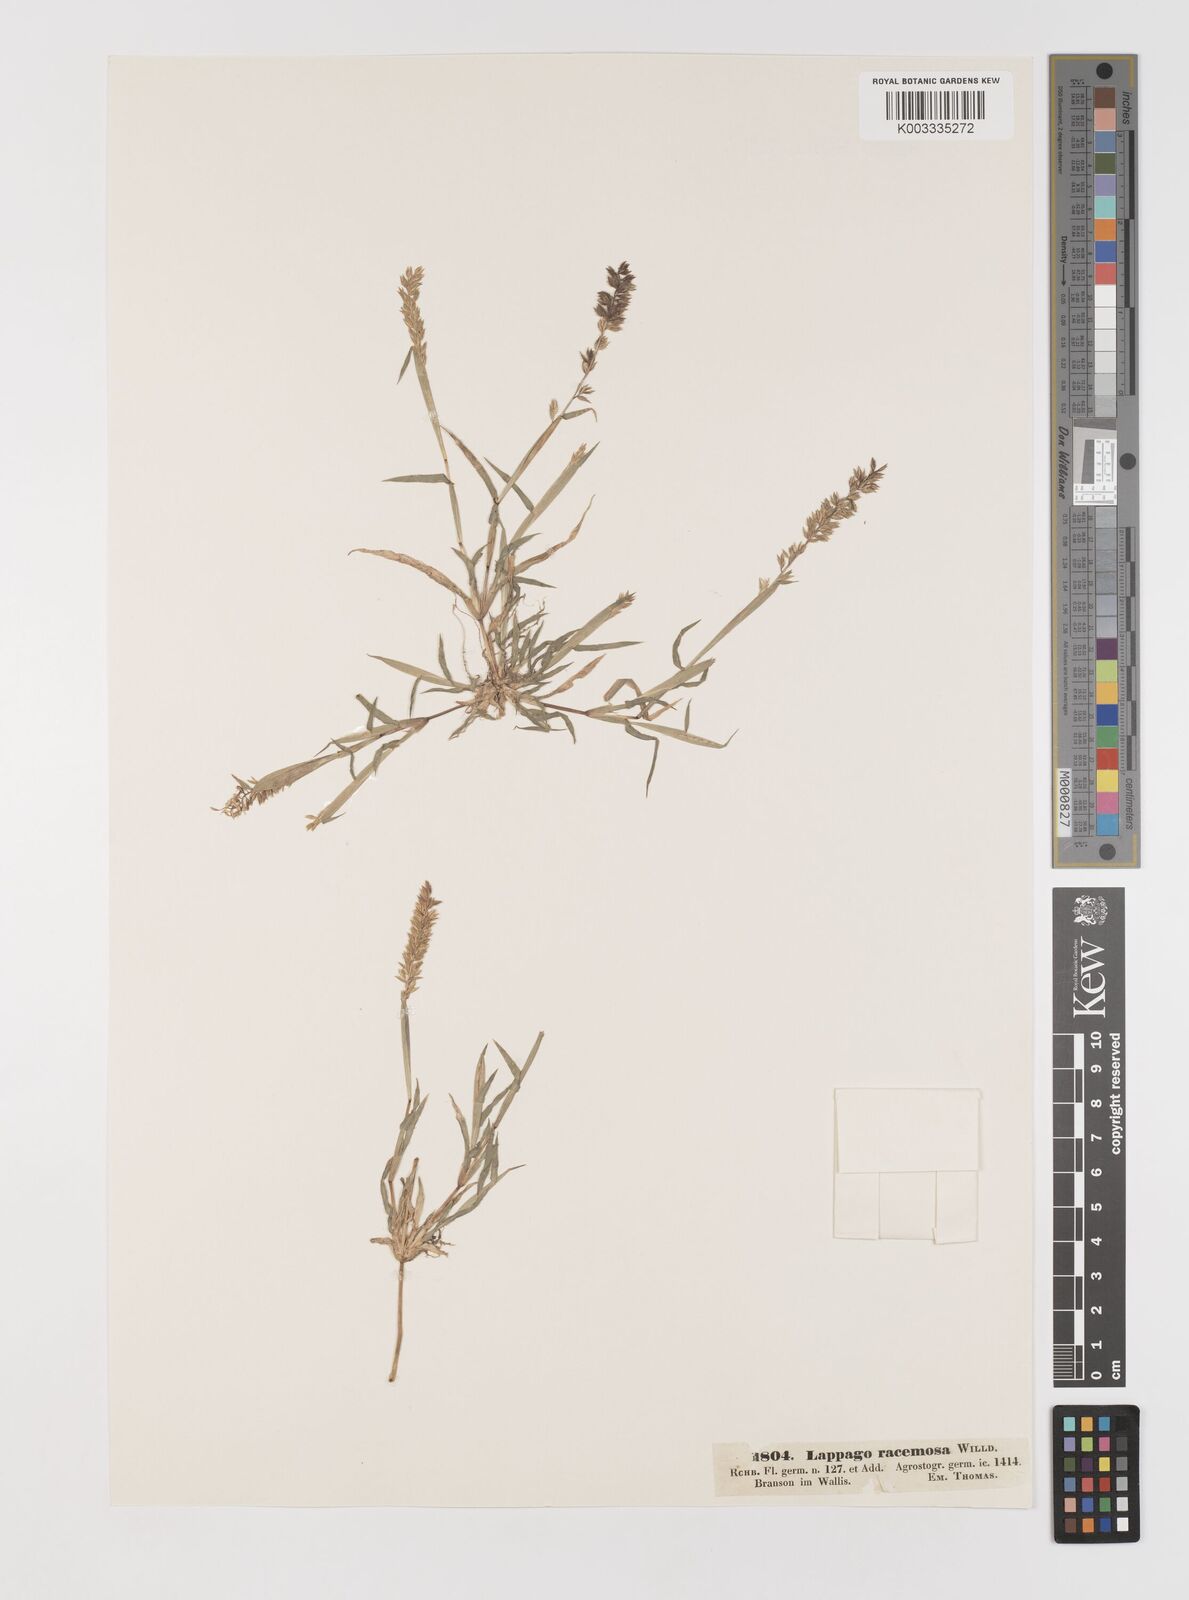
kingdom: Plantae
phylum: Tracheophyta
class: Liliopsida
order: Poales
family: Poaceae
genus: Tragus
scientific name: Tragus racemosus
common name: European bur-grass
